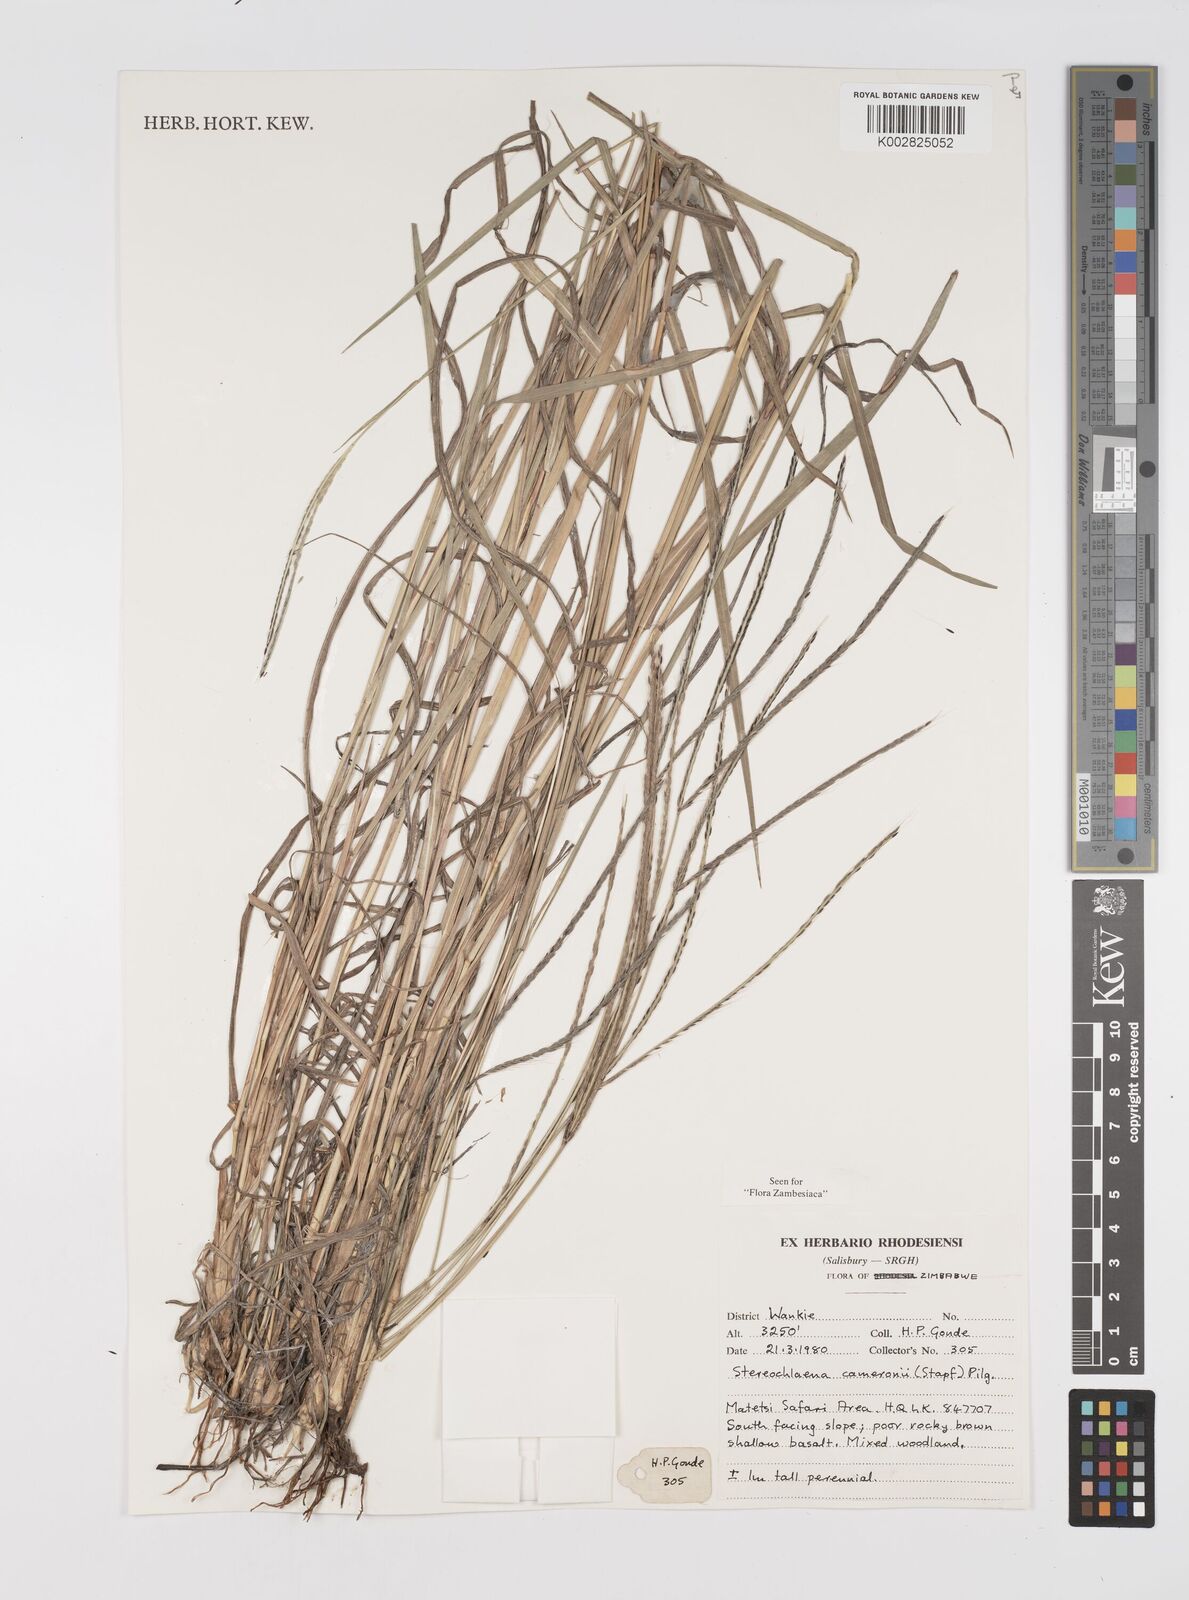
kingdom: Plantae
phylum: Tracheophyta
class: Liliopsida
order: Poales
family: Poaceae
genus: Stereochlaena
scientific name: Stereochlaena cameronii
